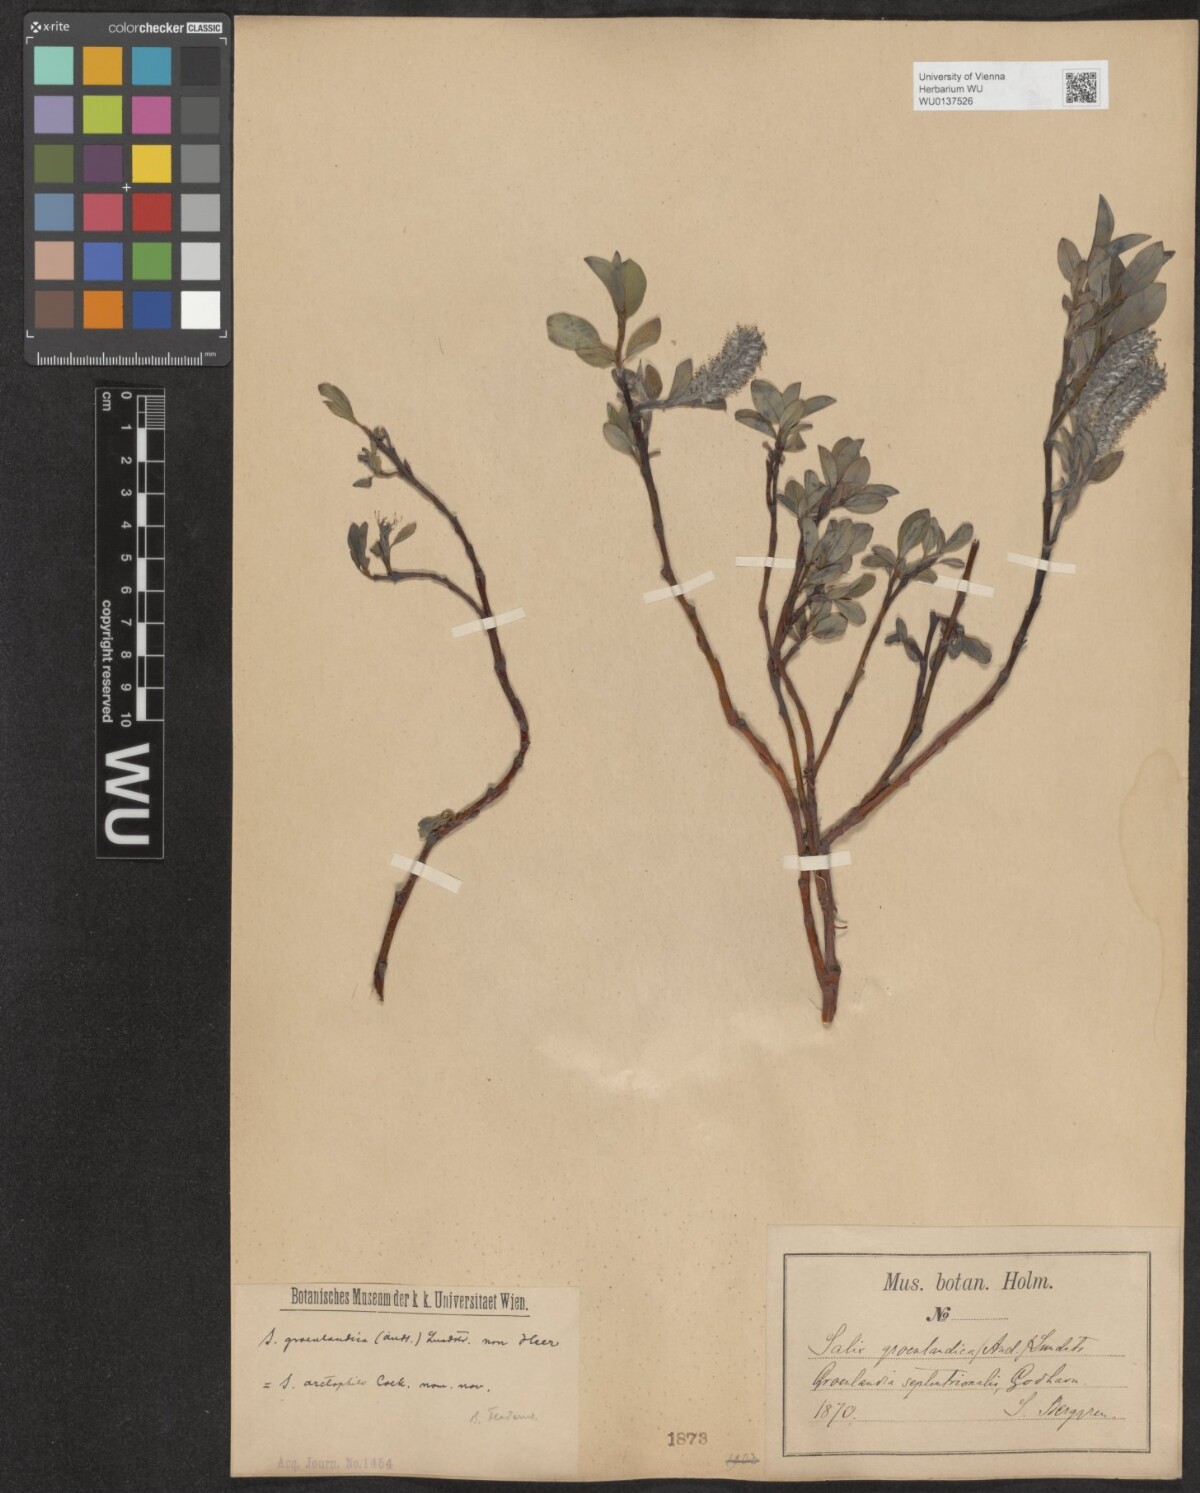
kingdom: Plantae
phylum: Tracheophyta
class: Magnoliopsida
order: Malpighiales
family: Salicaceae
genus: Salix
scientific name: Salix arctophila
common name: Greenland willow
